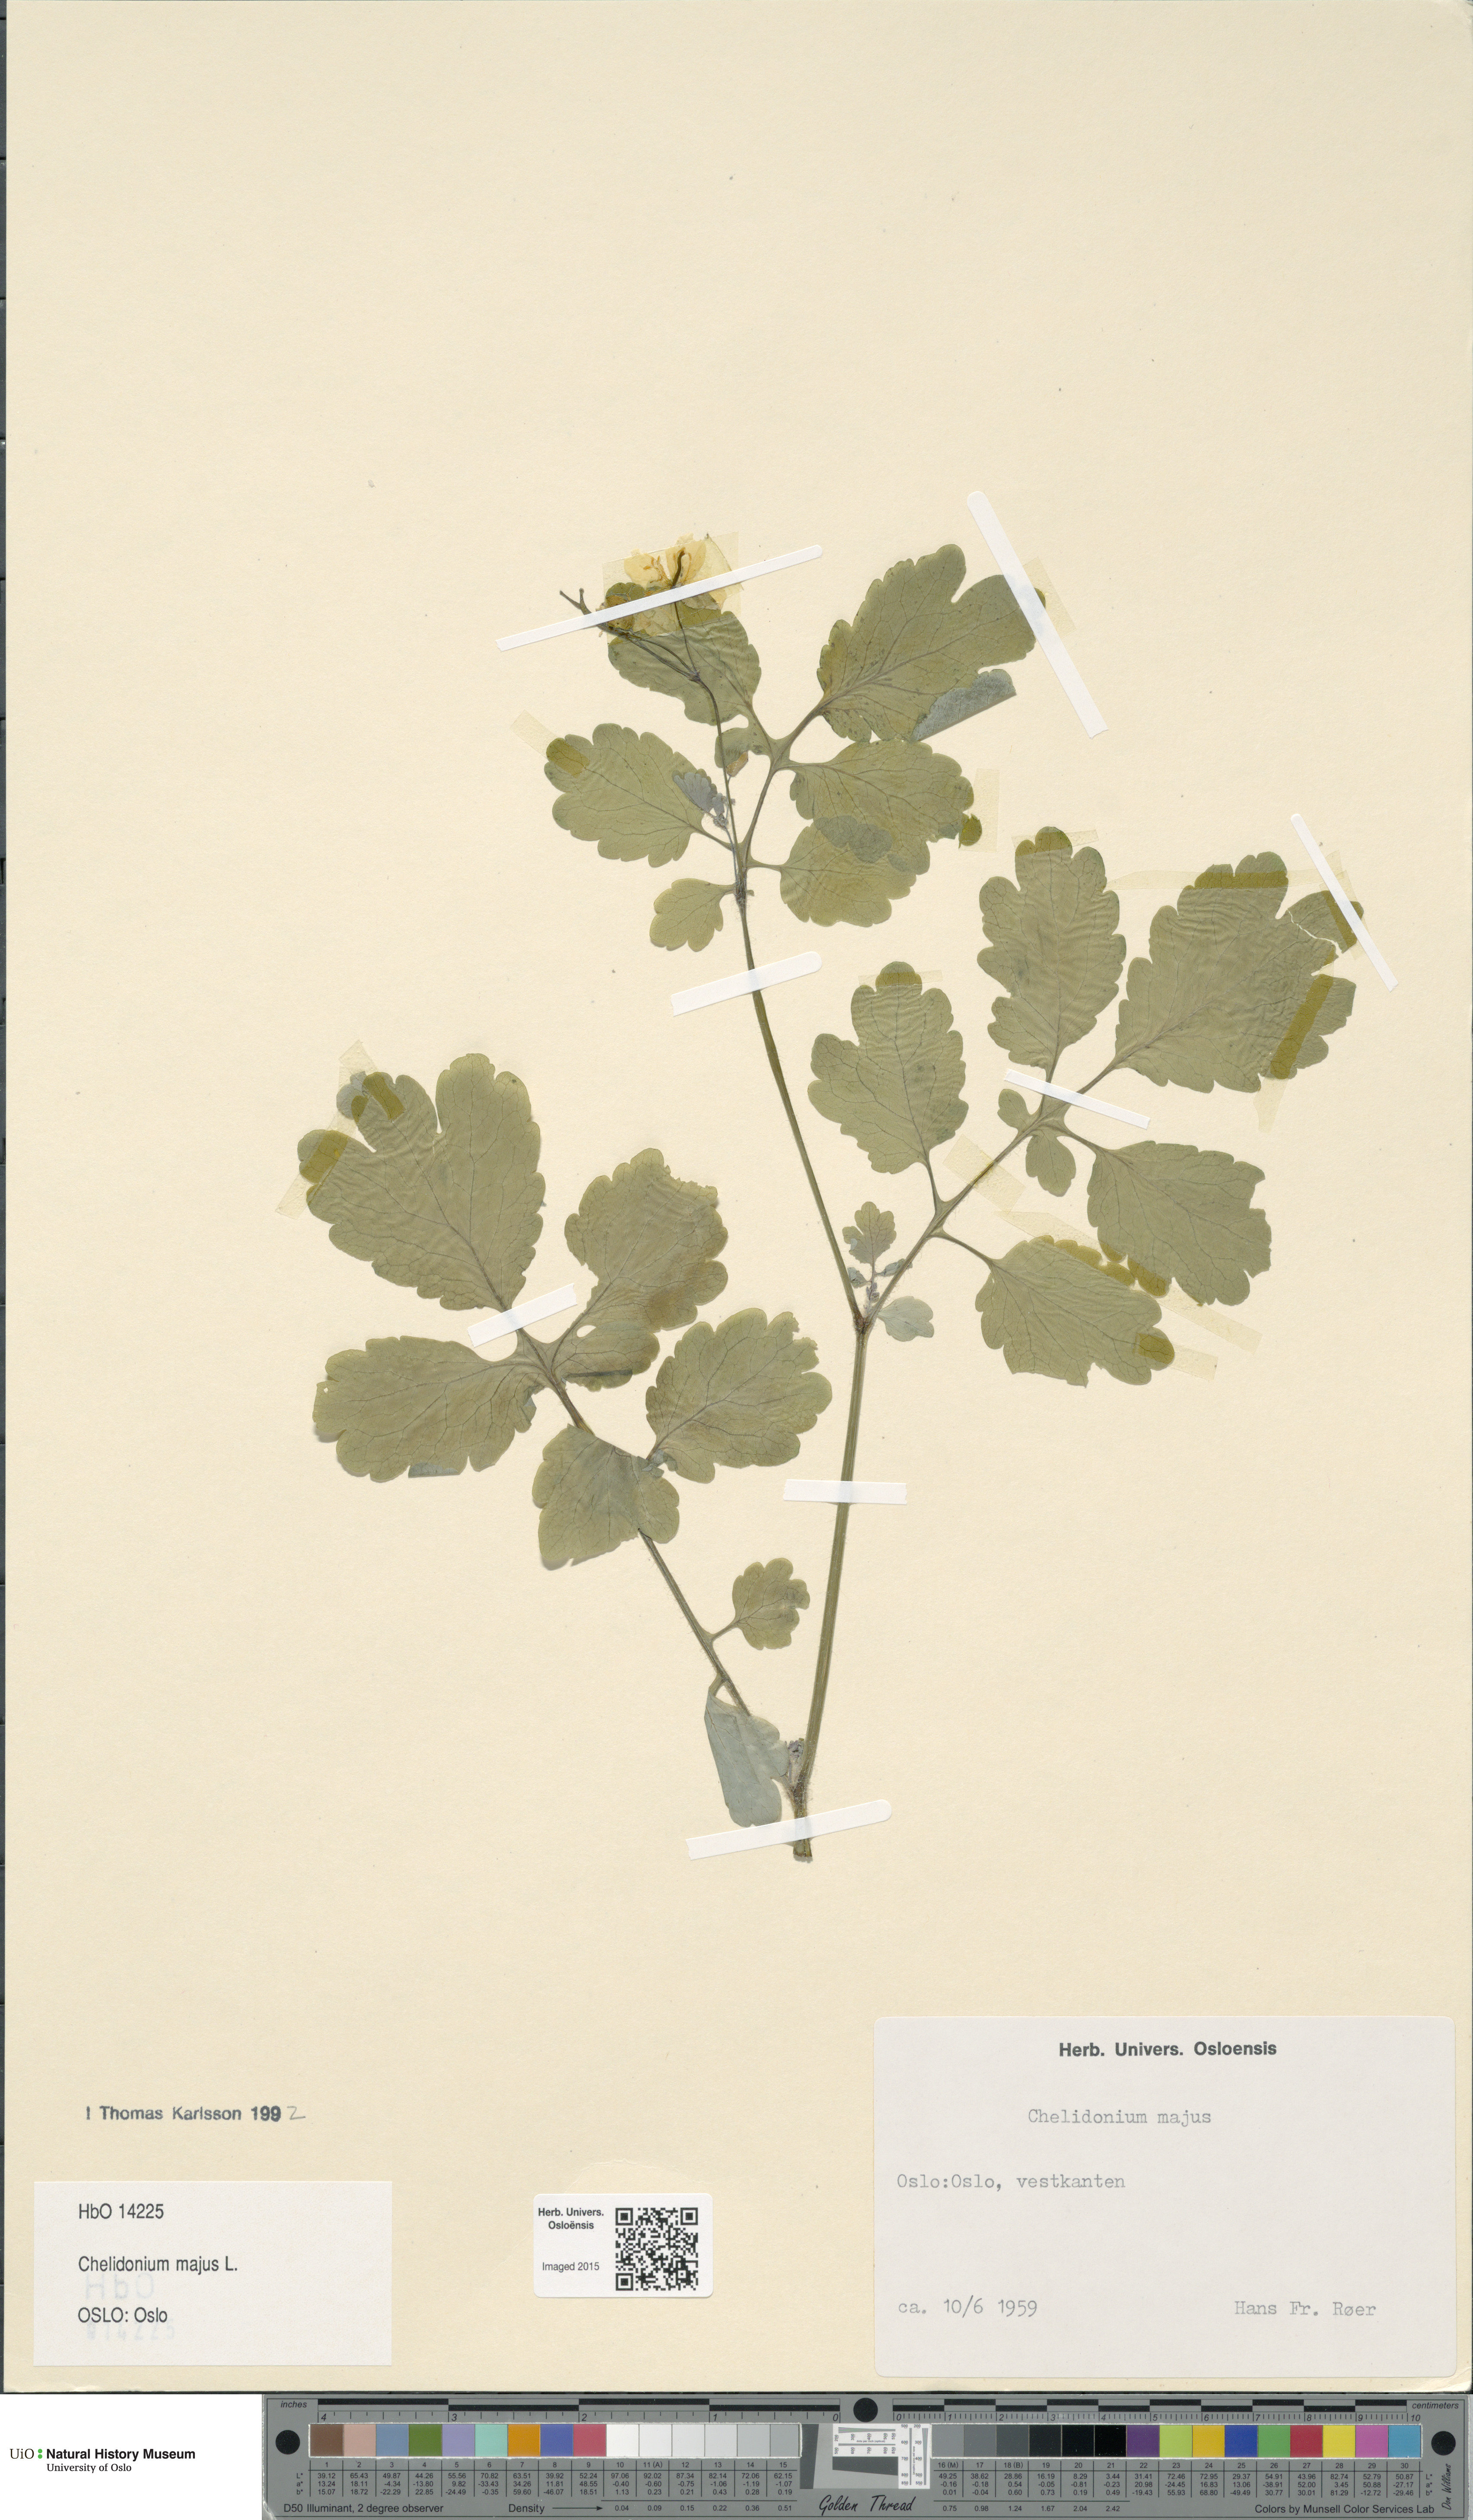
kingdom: Plantae
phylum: Tracheophyta
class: Magnoliopsida
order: Ranunculales
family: Papaveraceae
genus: Chelidonium
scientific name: Chelidonium majus
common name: Greater celandine
